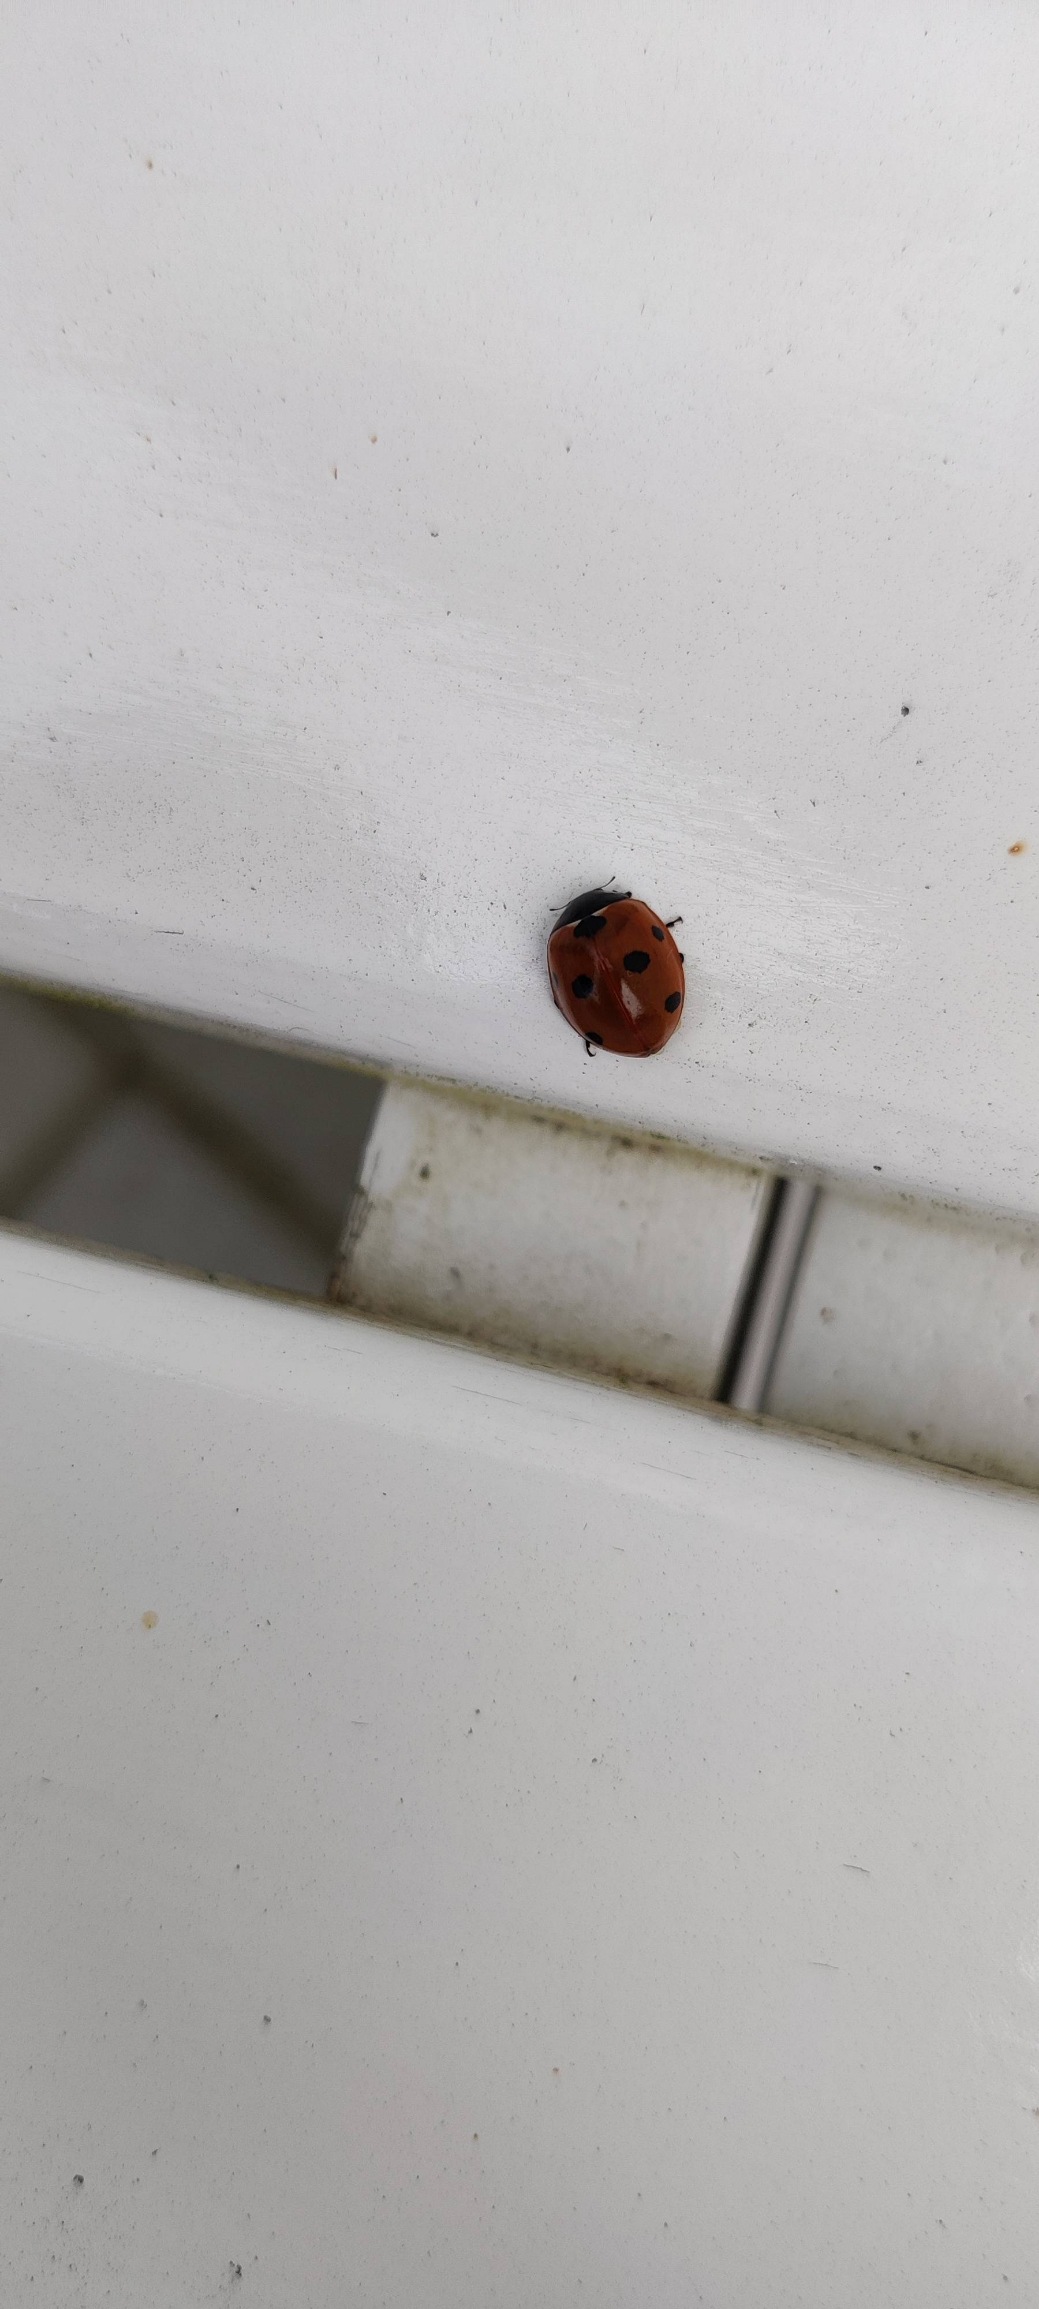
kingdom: Animalia
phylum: Arthropoda
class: Insecta
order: Coleoptera
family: Coccinellidae
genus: Coccinella
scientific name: Coccinella septempunctata
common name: Syvplettet mariehøne
